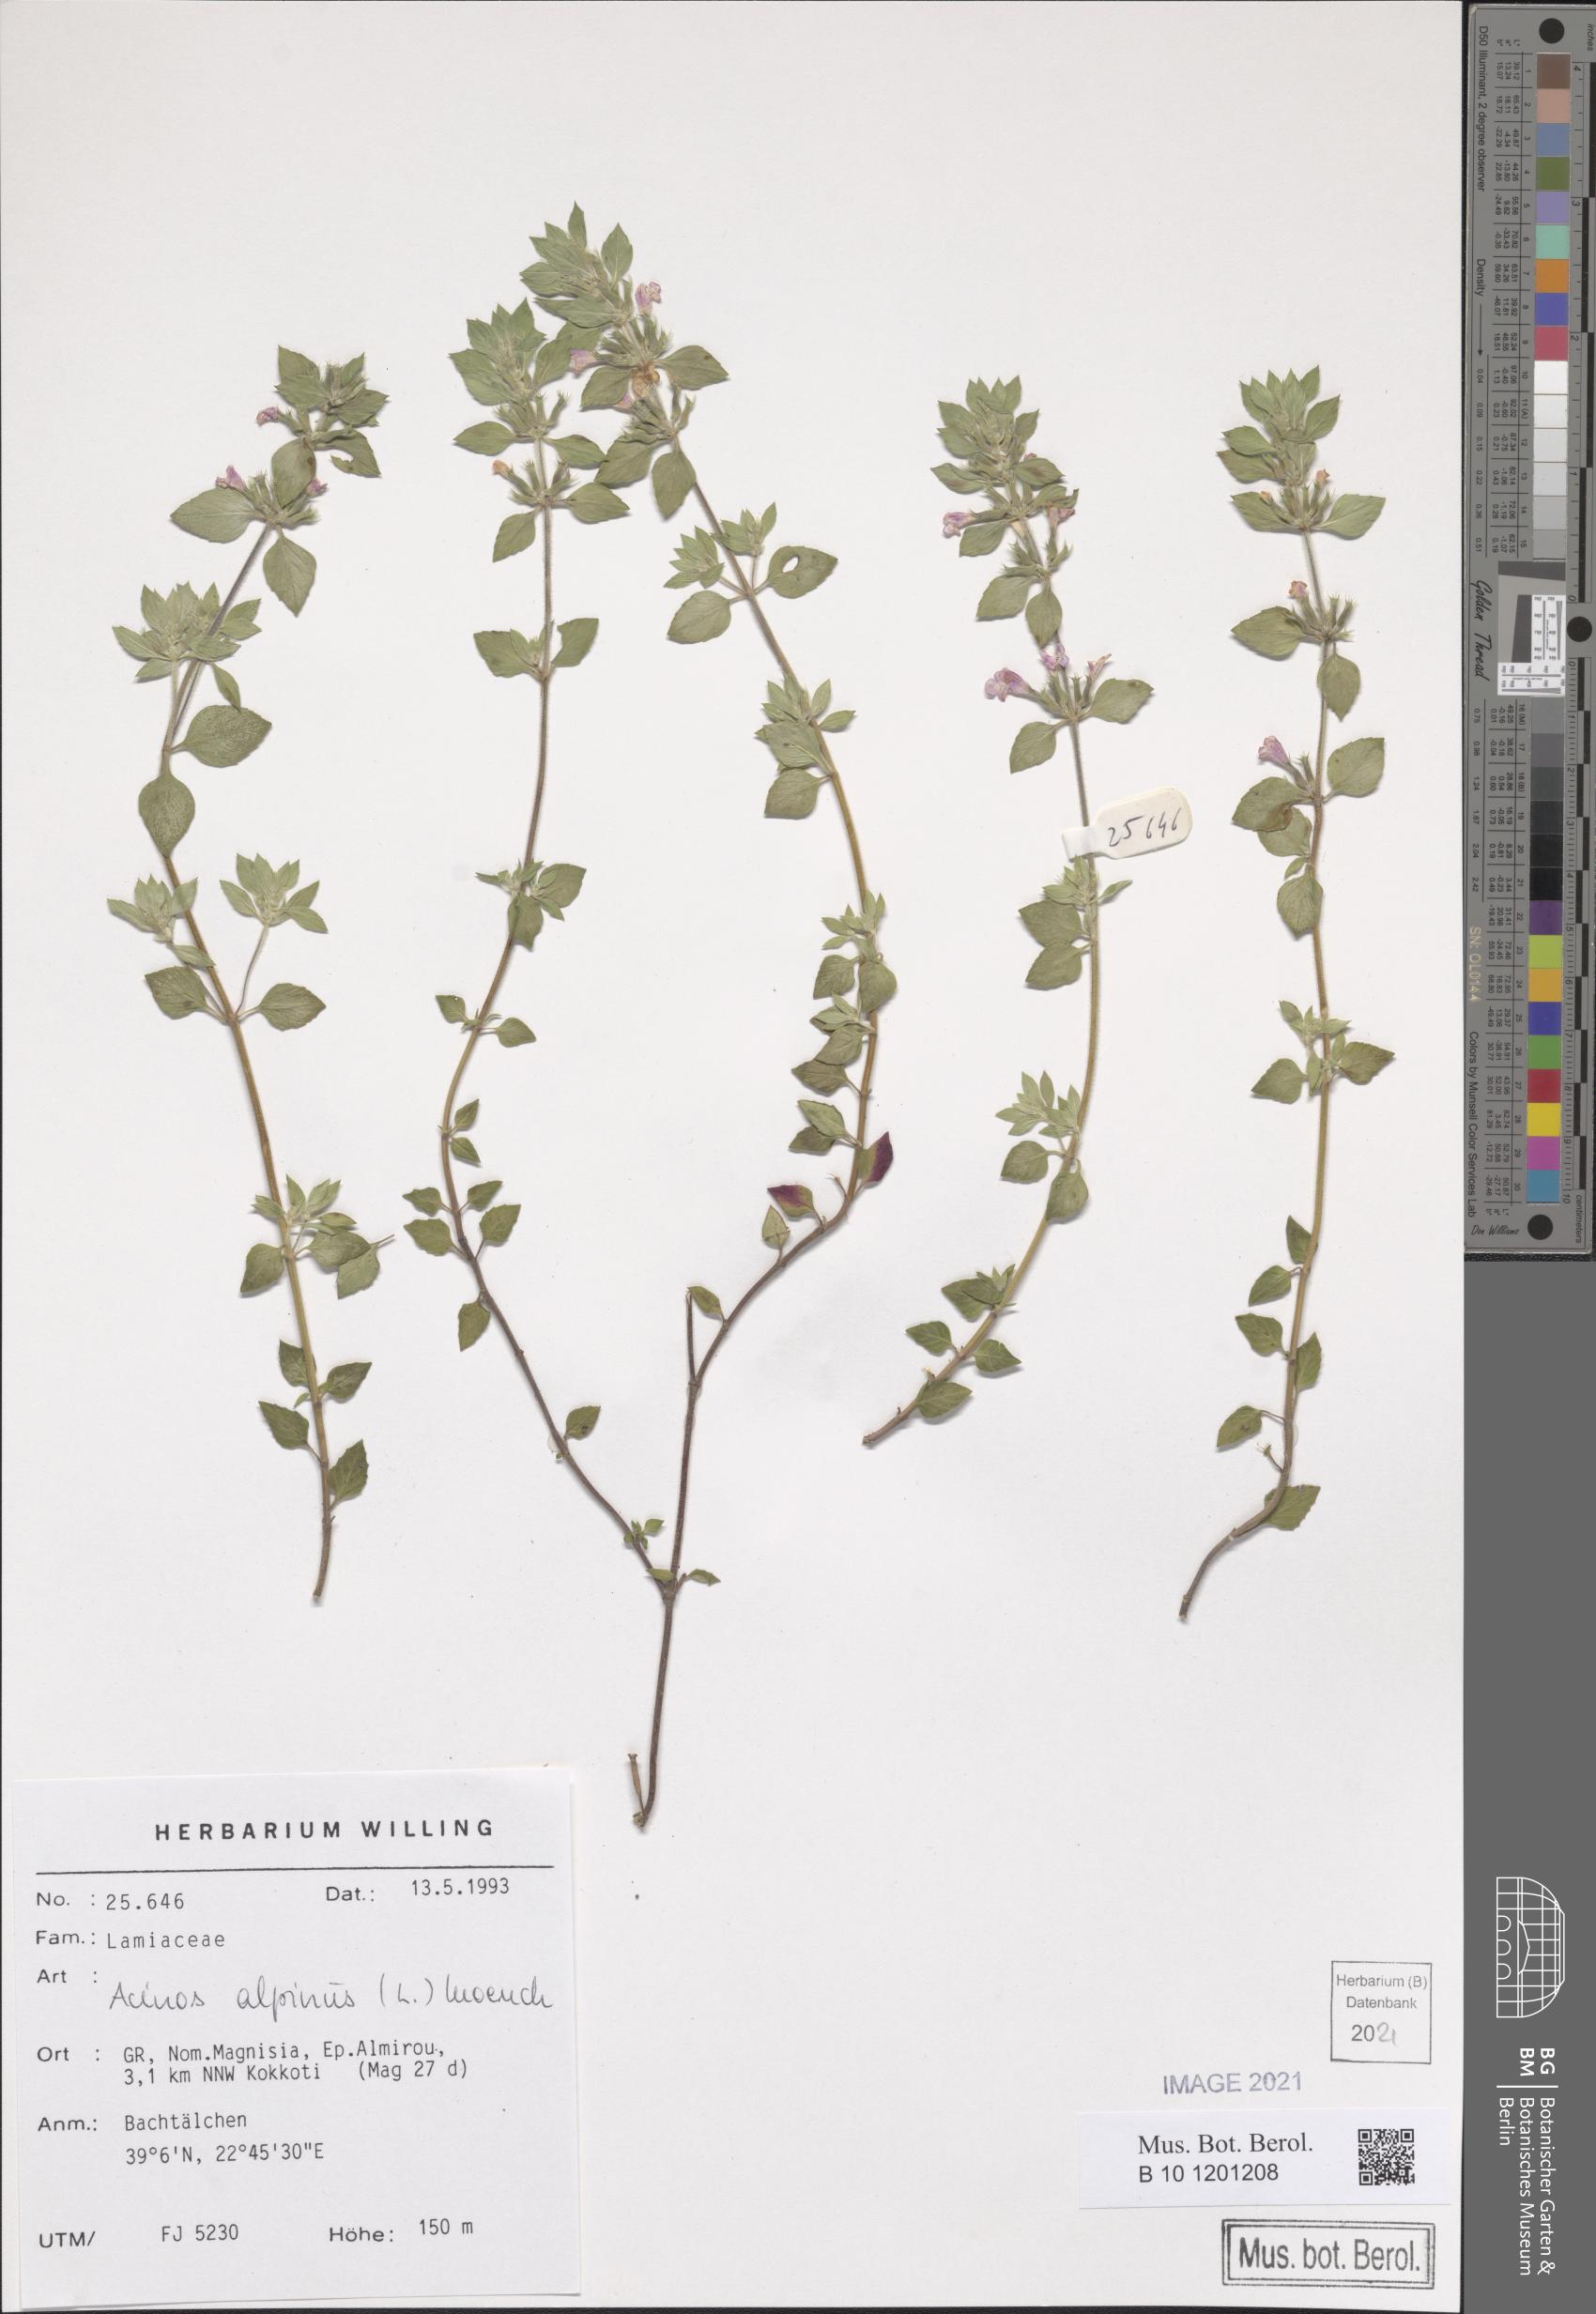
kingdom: Plantae
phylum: Tracheophyta
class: Magnoliopsida
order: Lamiales
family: Lamiaceae
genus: Clinopodium
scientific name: Clinopodium alpinum
